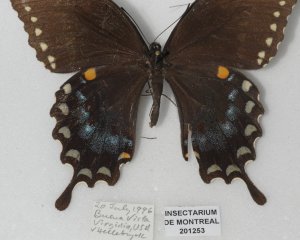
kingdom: Animalia
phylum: Arthropoda
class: Insecta
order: Lepidoptera
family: Papilionidae
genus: Pterourus
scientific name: Pterourus glaucus
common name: Eastern Tiger Swallowtail
